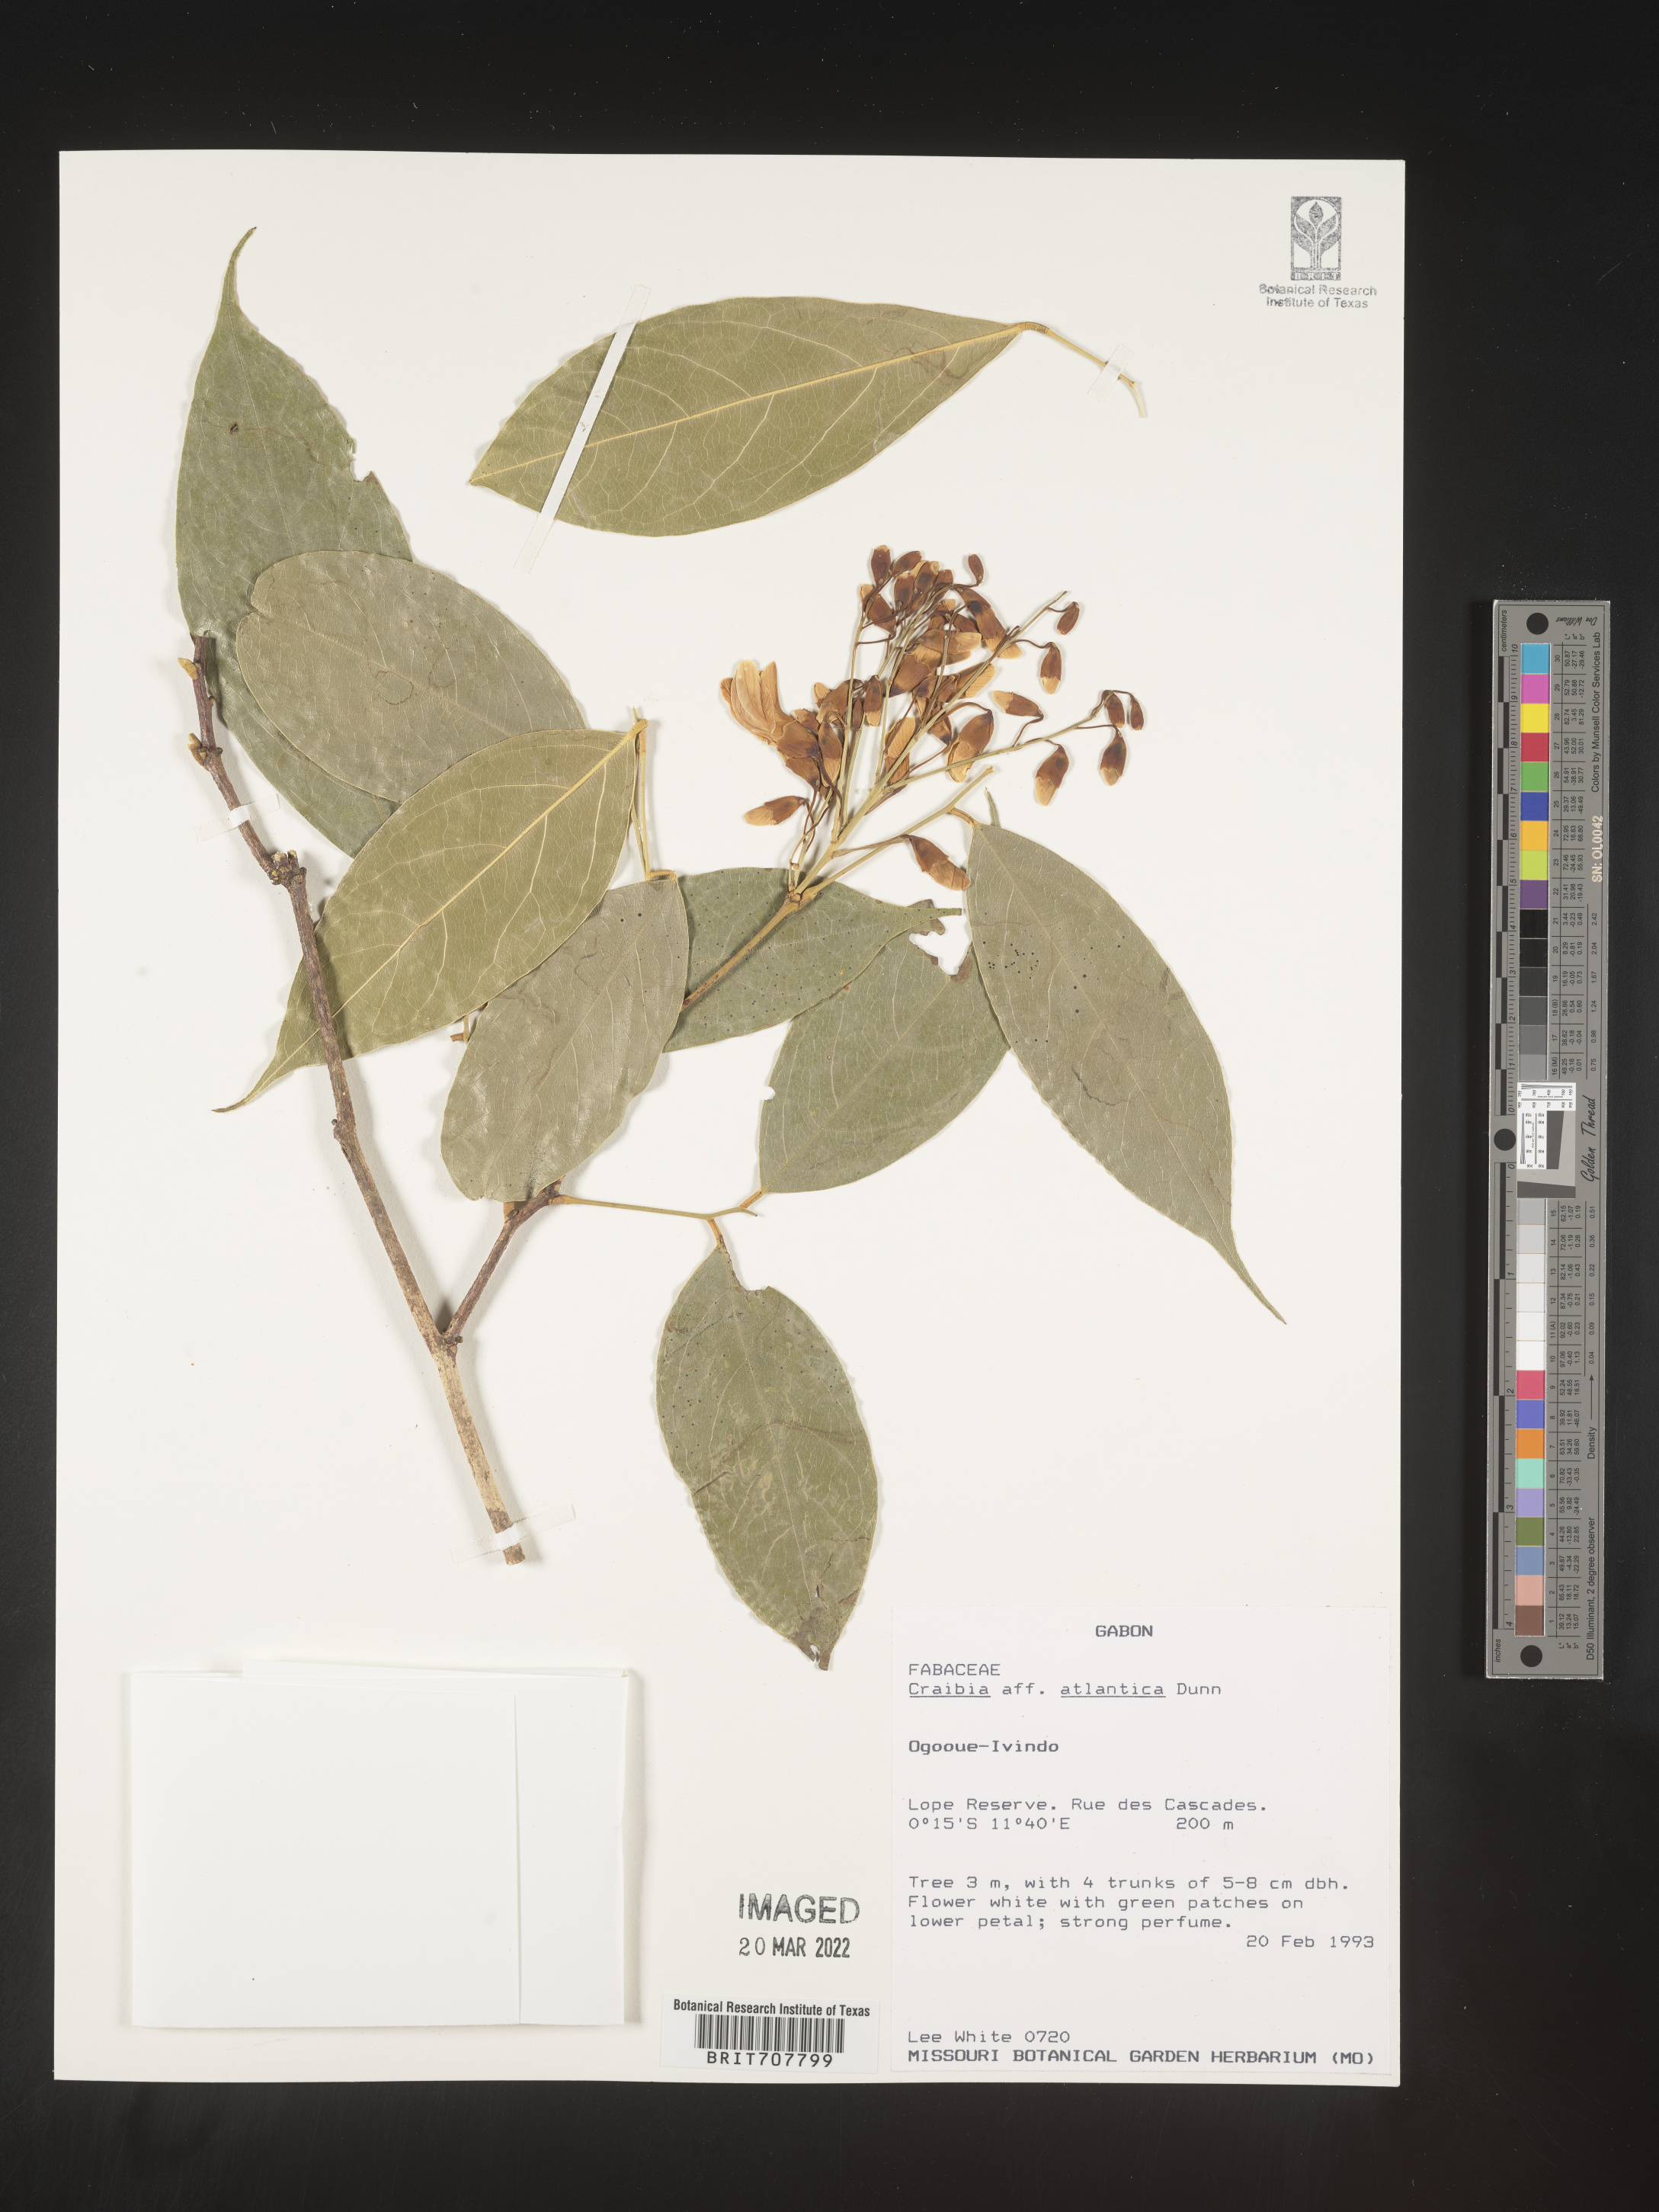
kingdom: Plantae
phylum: Tracheophyta
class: Magnoliopsida
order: Fabales
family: Fabaceae
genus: Craibia
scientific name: Craibia
